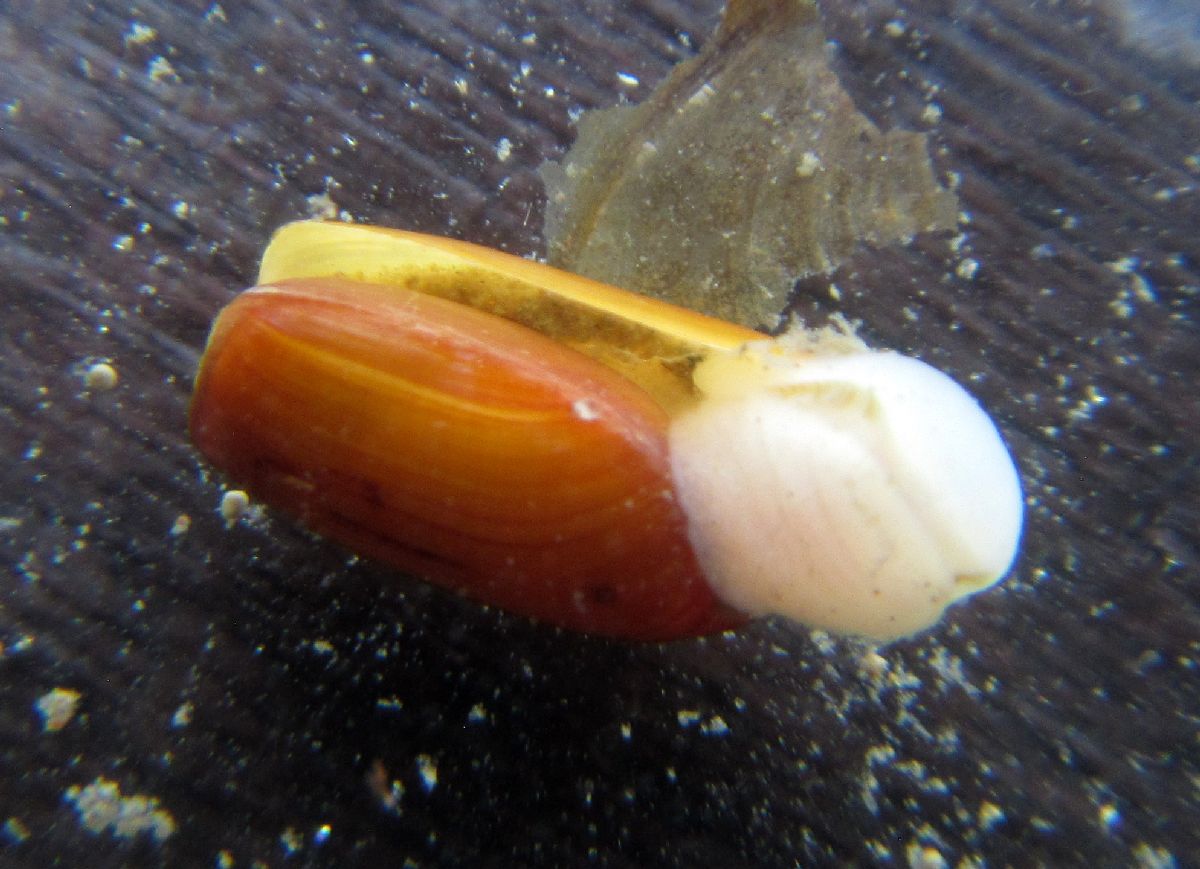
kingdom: Animalia
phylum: Mollusca
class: Gastropoda
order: Cephalaspidea
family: Cylichnidae
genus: Cylichna
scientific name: Cylichna alba
